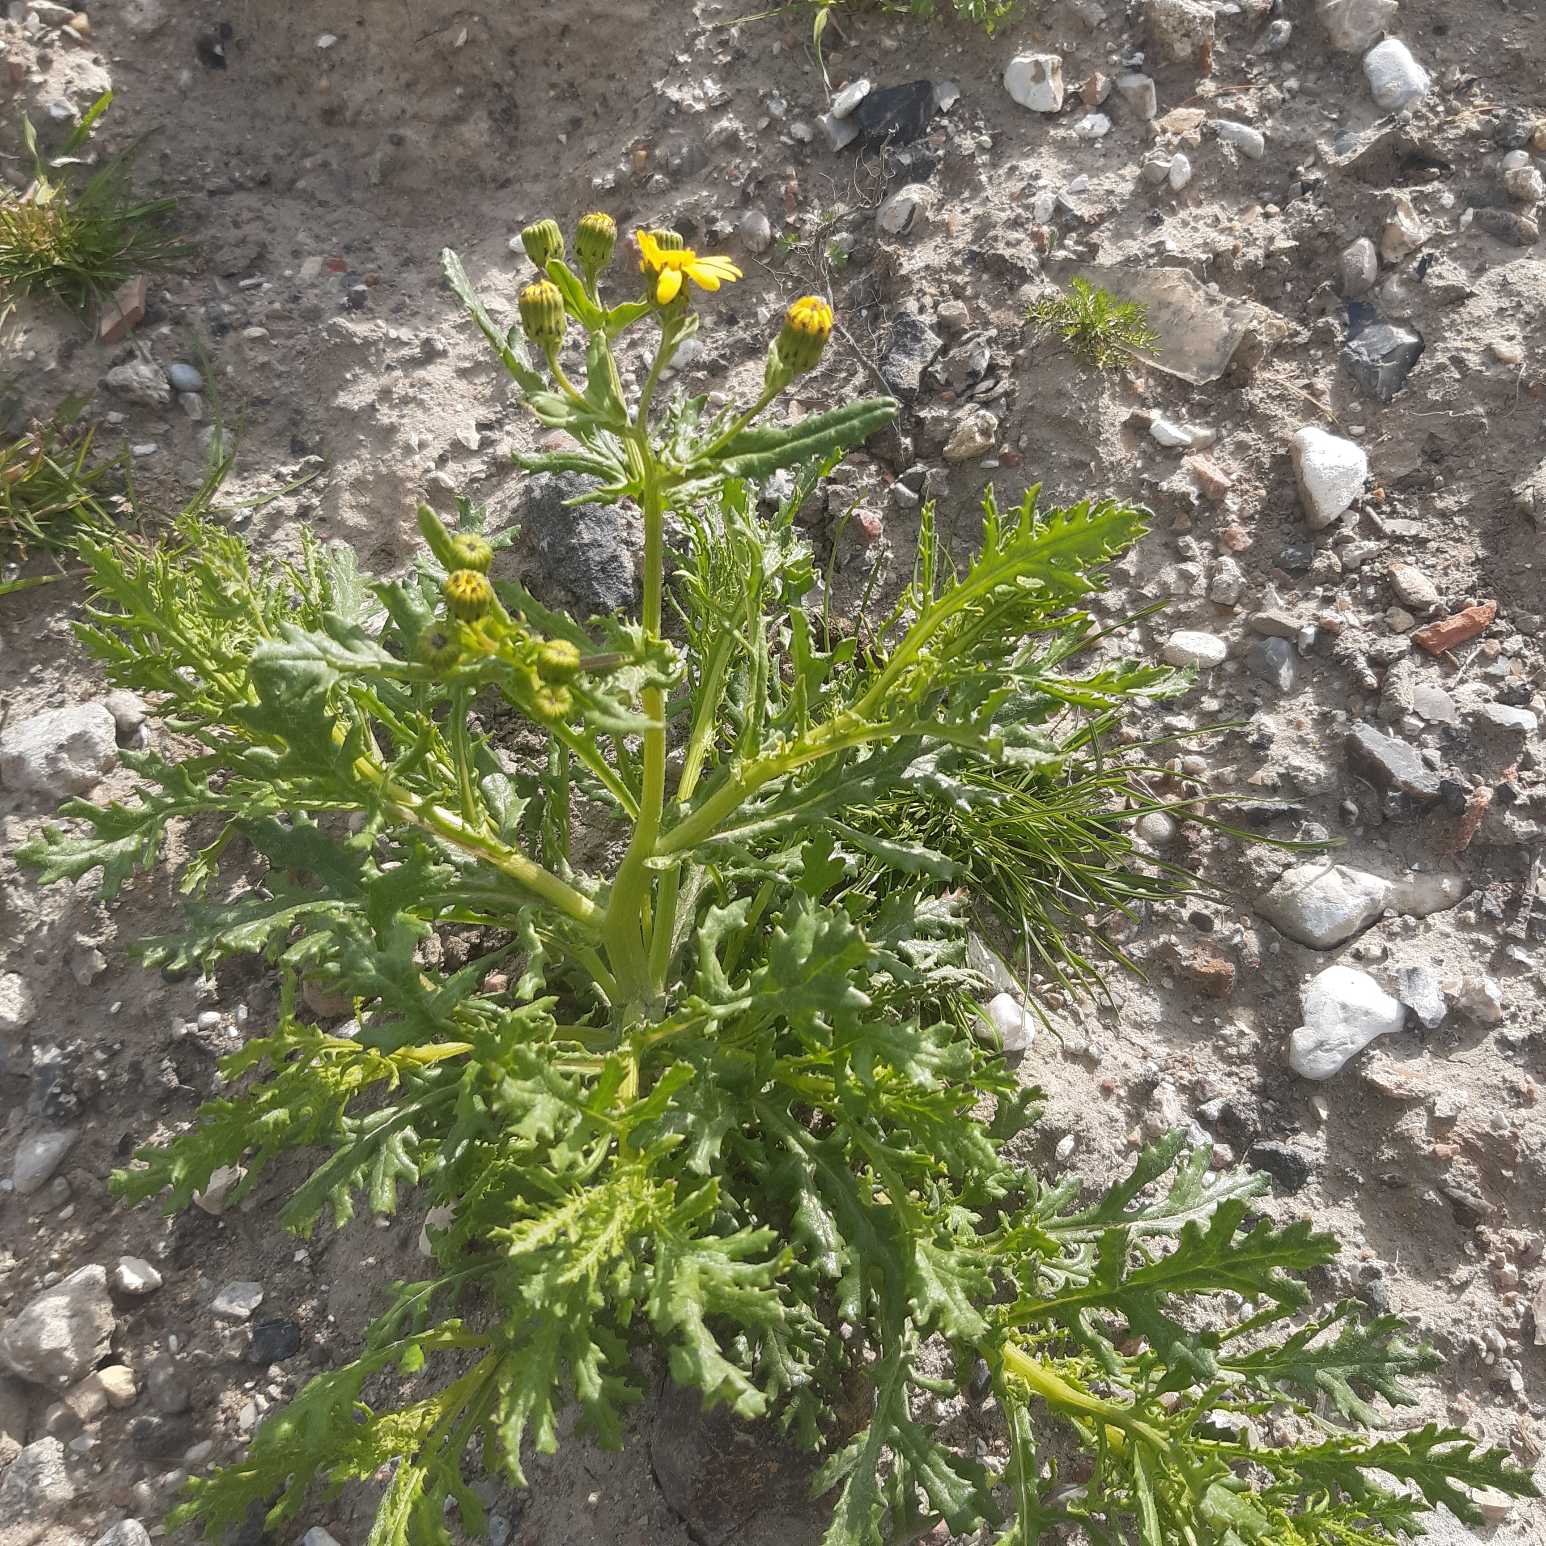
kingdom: Plantae
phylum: Tracheophyta
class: Magnoliopsida
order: Asterales
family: Asteraceae
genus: Senecio
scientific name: Senecio squalidus
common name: Italiensk brandbæger
